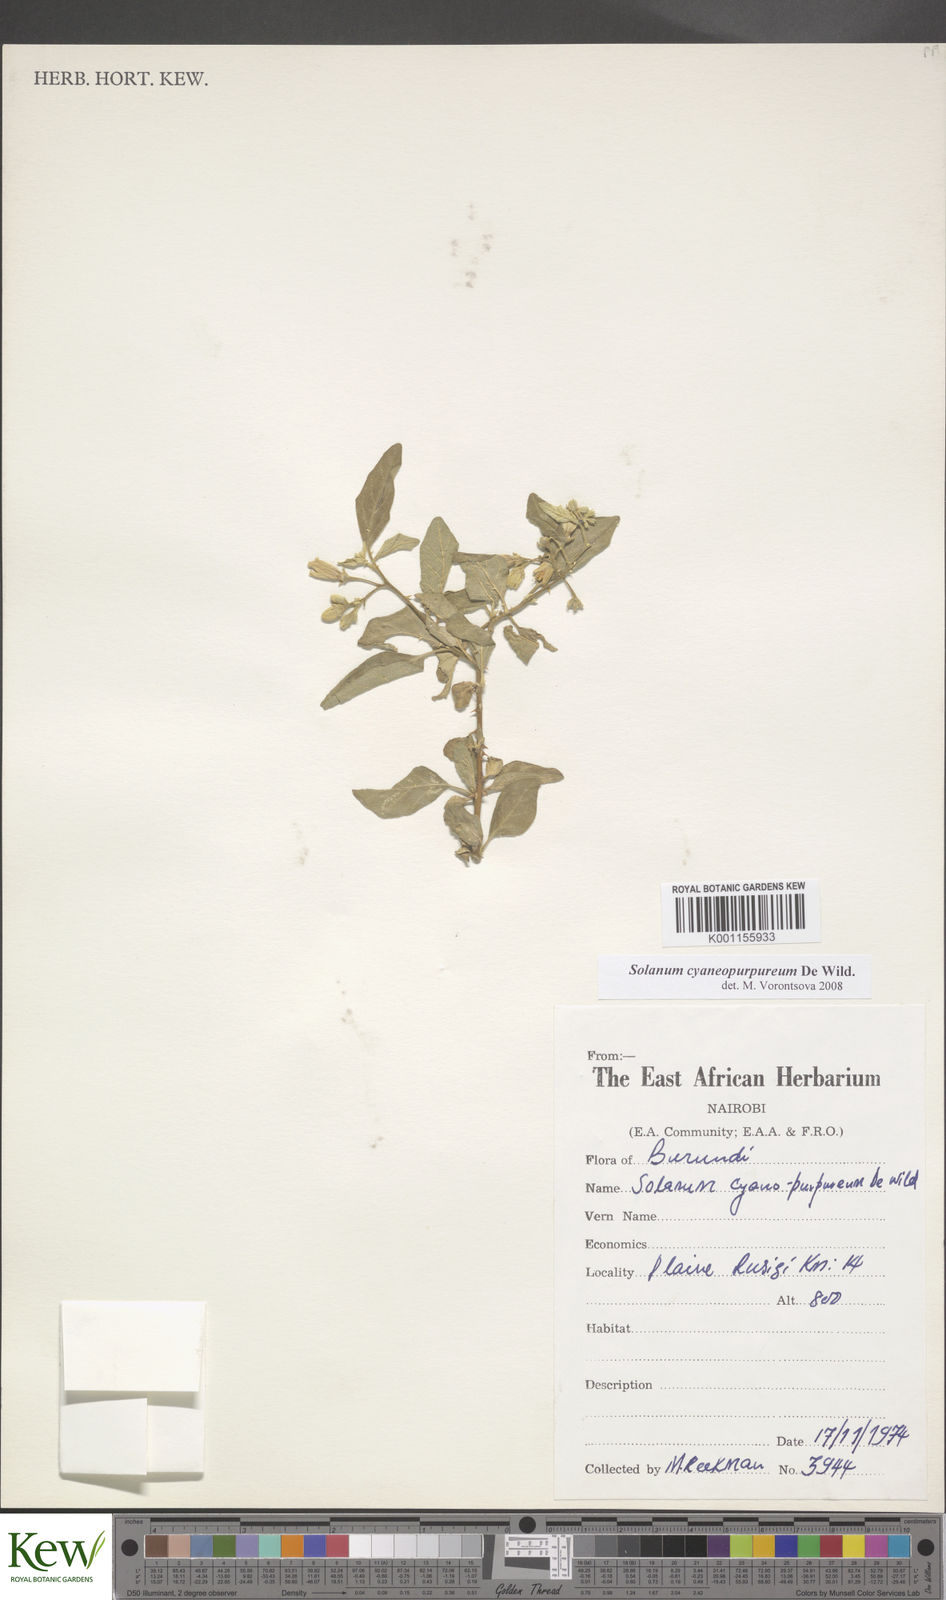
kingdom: Plantae
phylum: Tracheophyta
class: Magnoliopsida
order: Solanales
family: Solanaceae
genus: Solanum
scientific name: Solanum cyaneopurpureum
